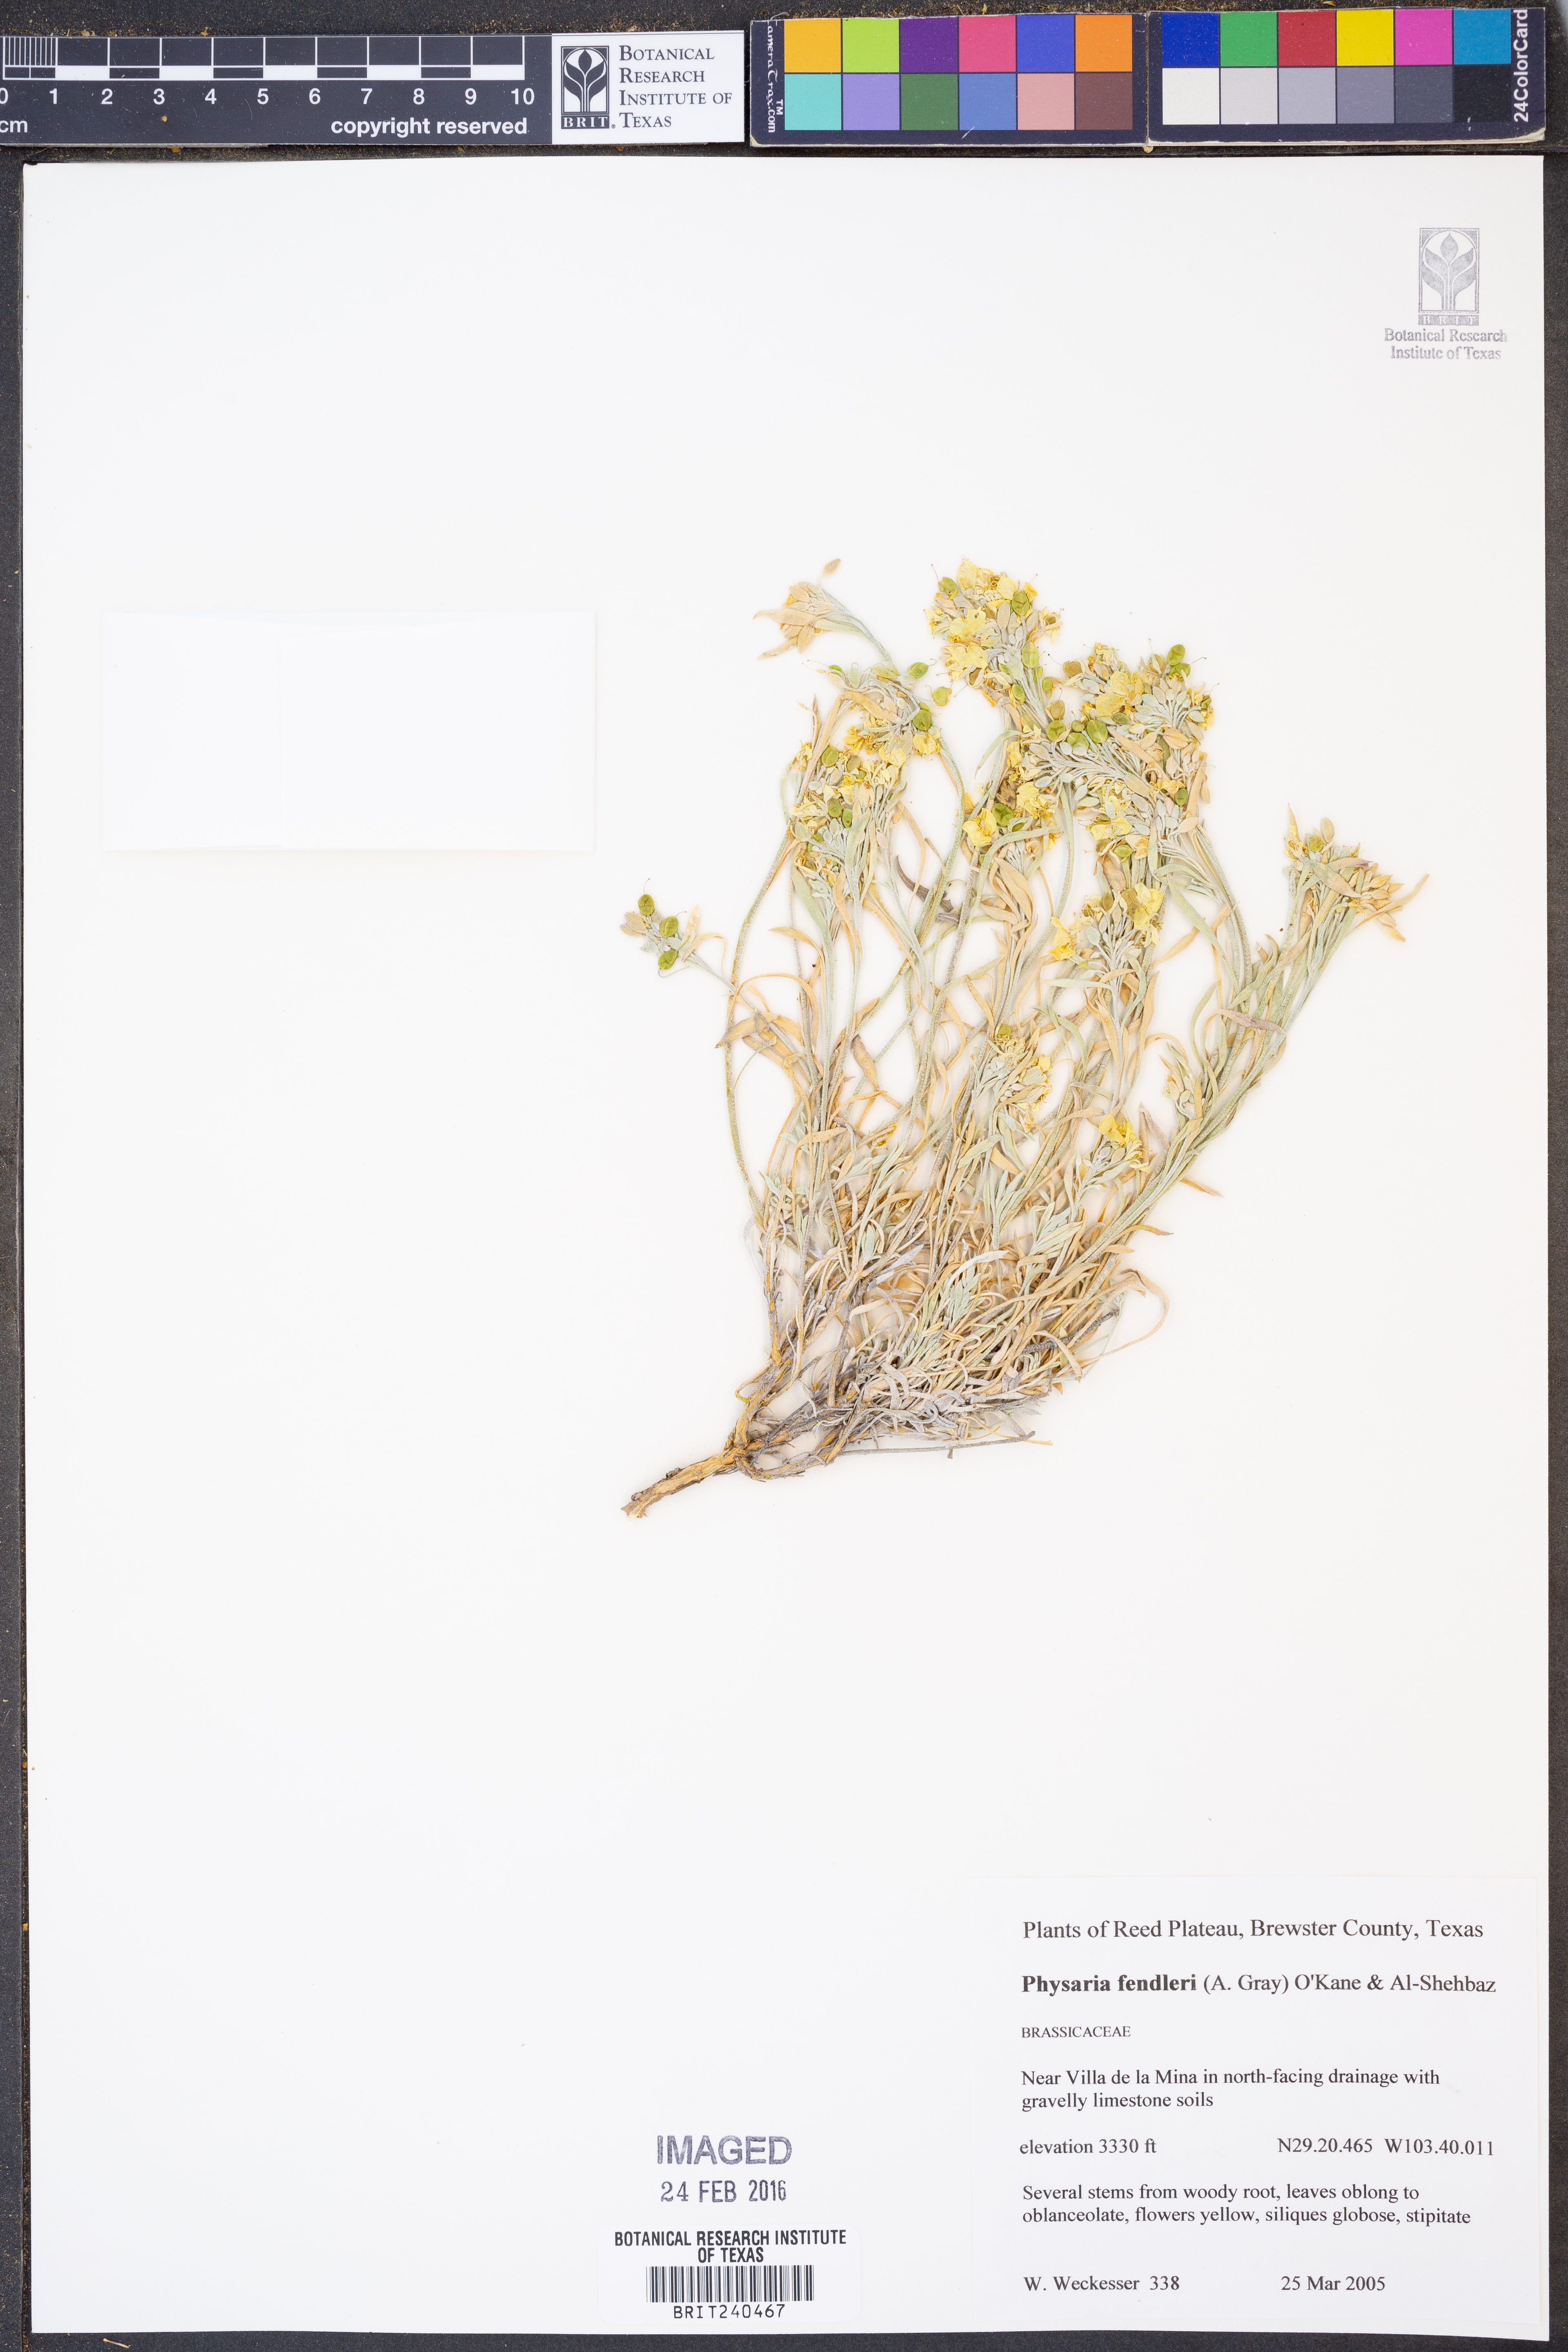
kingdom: Plantae
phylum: Tracheophyta
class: Magnoliopsida
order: Brassicales
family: Brassicaceae
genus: Physaria
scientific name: Physaria fendleri
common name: Fendler's bladderpod
